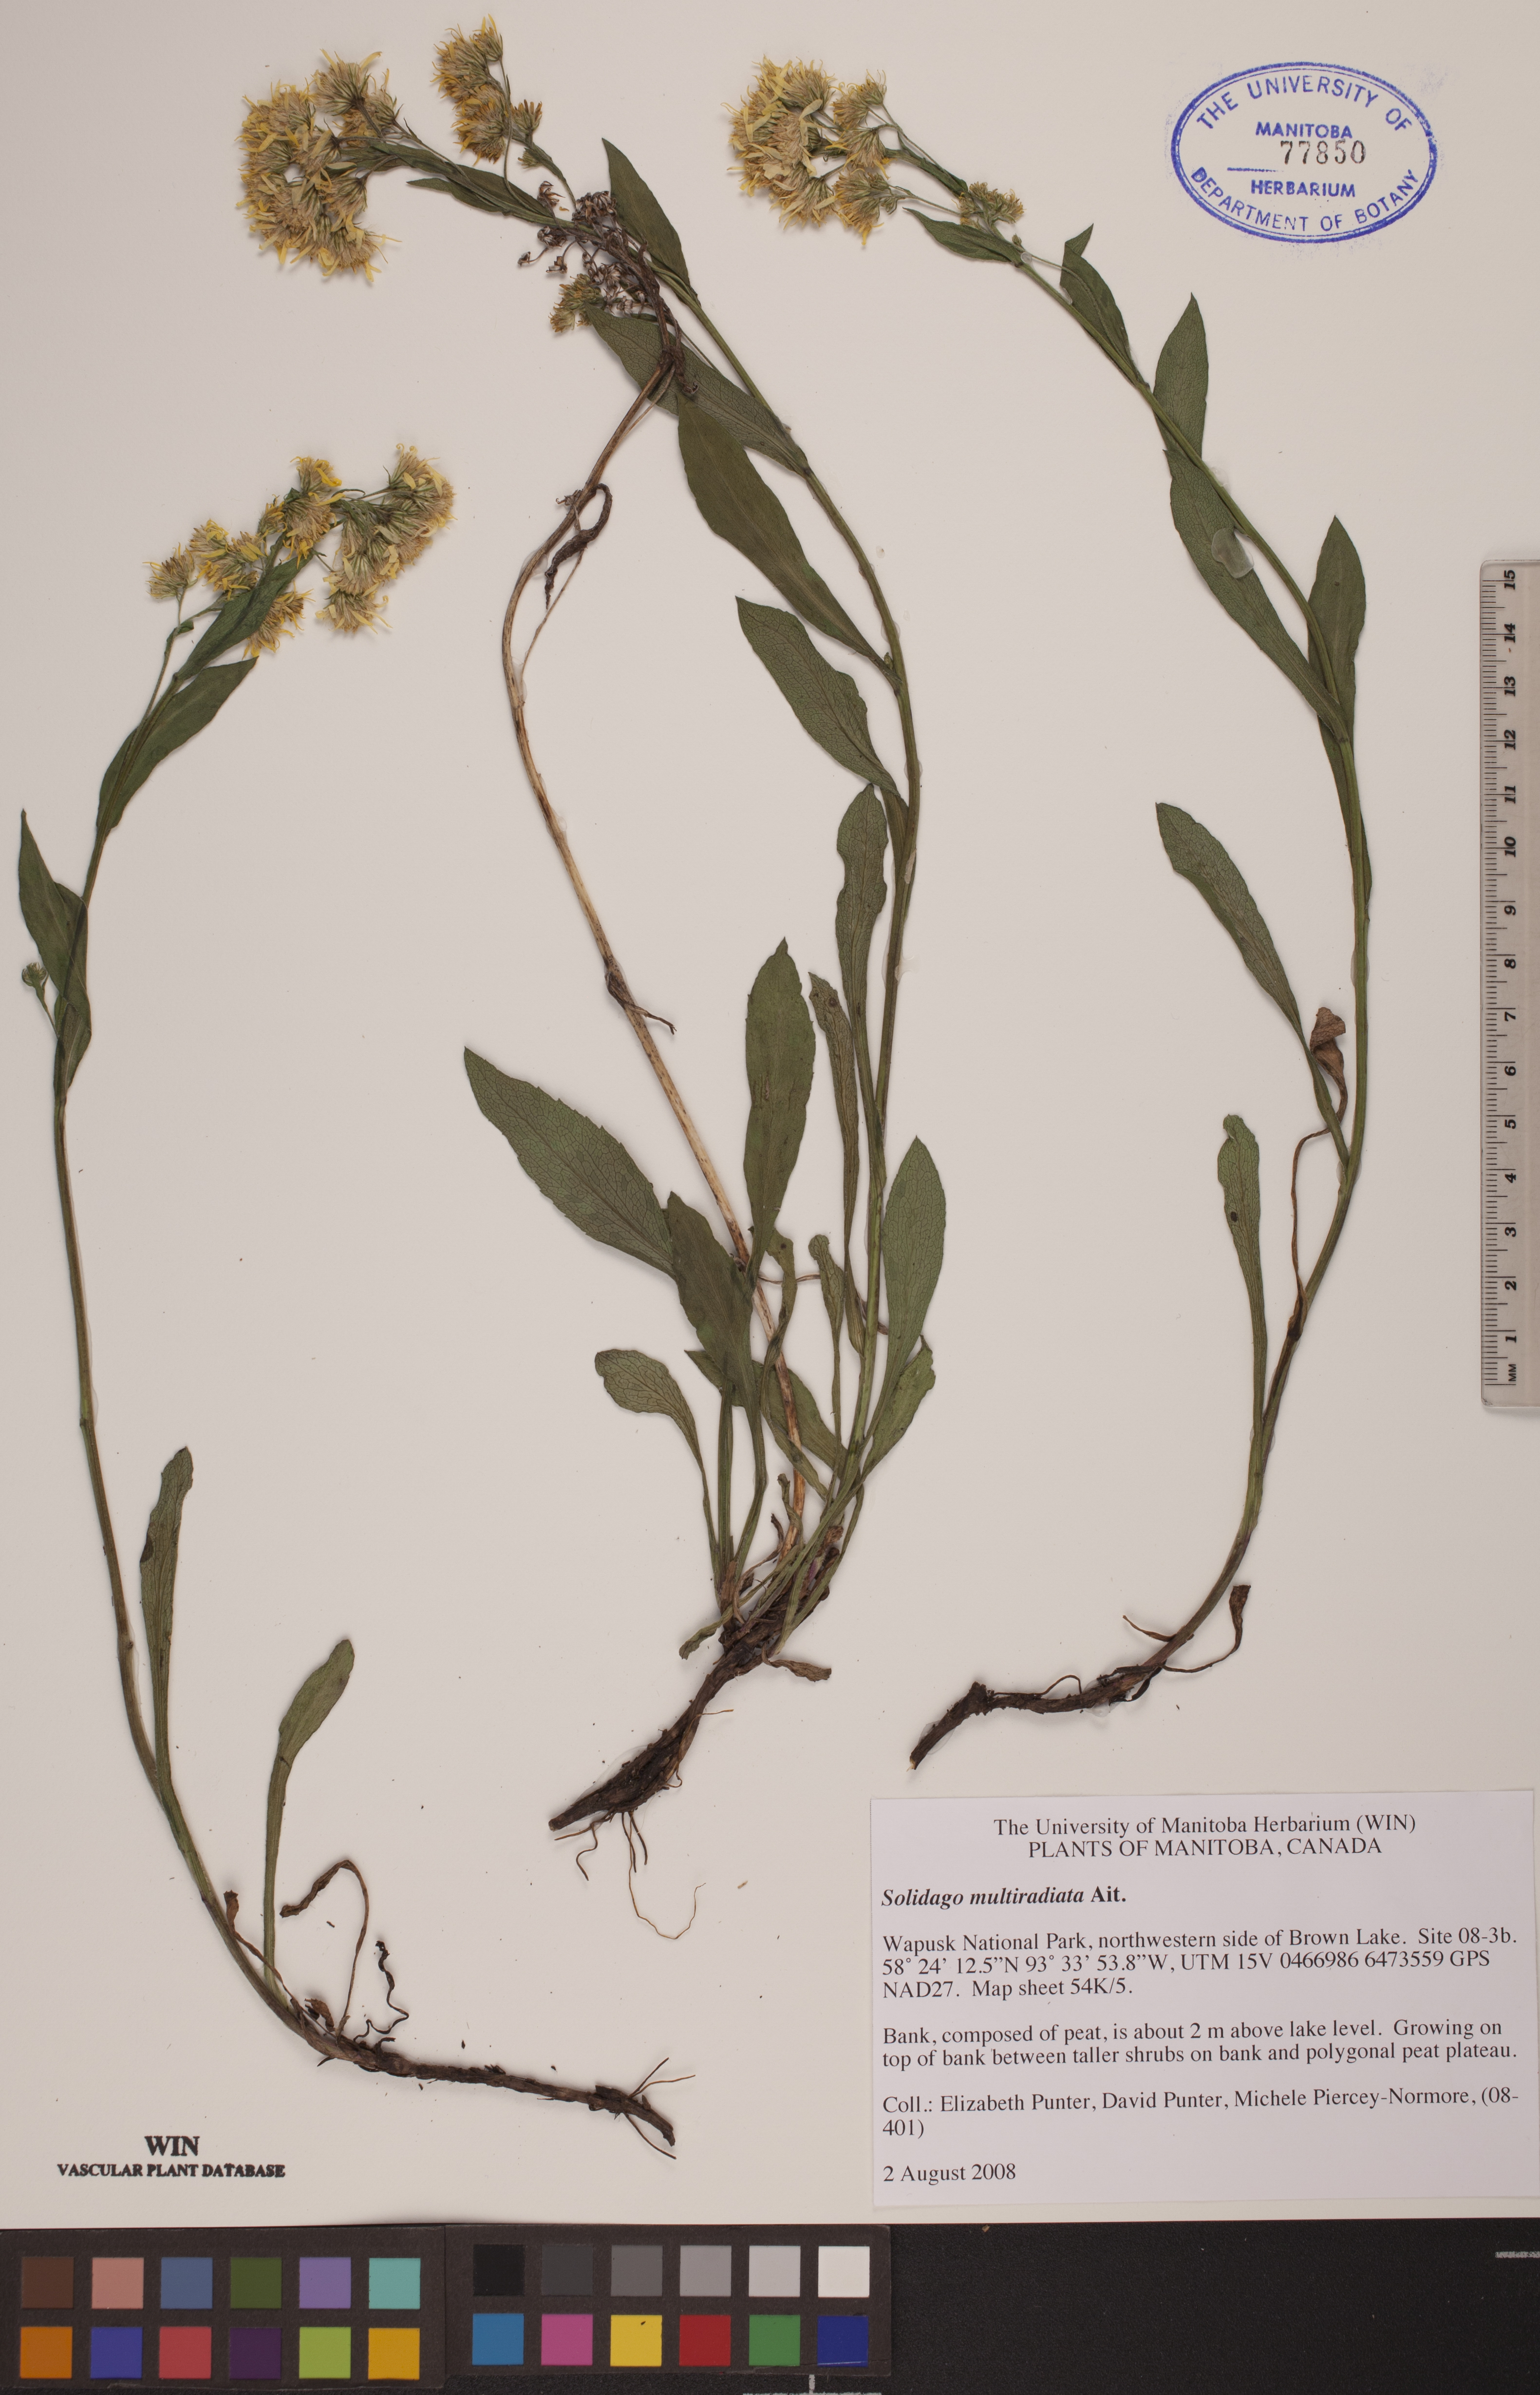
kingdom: Plantae
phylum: Tracheophyta
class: Magnoliopsida
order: Asterales
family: Asteraceae
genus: Solidago
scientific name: Solidago multiradiata
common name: Northern goldenrod
